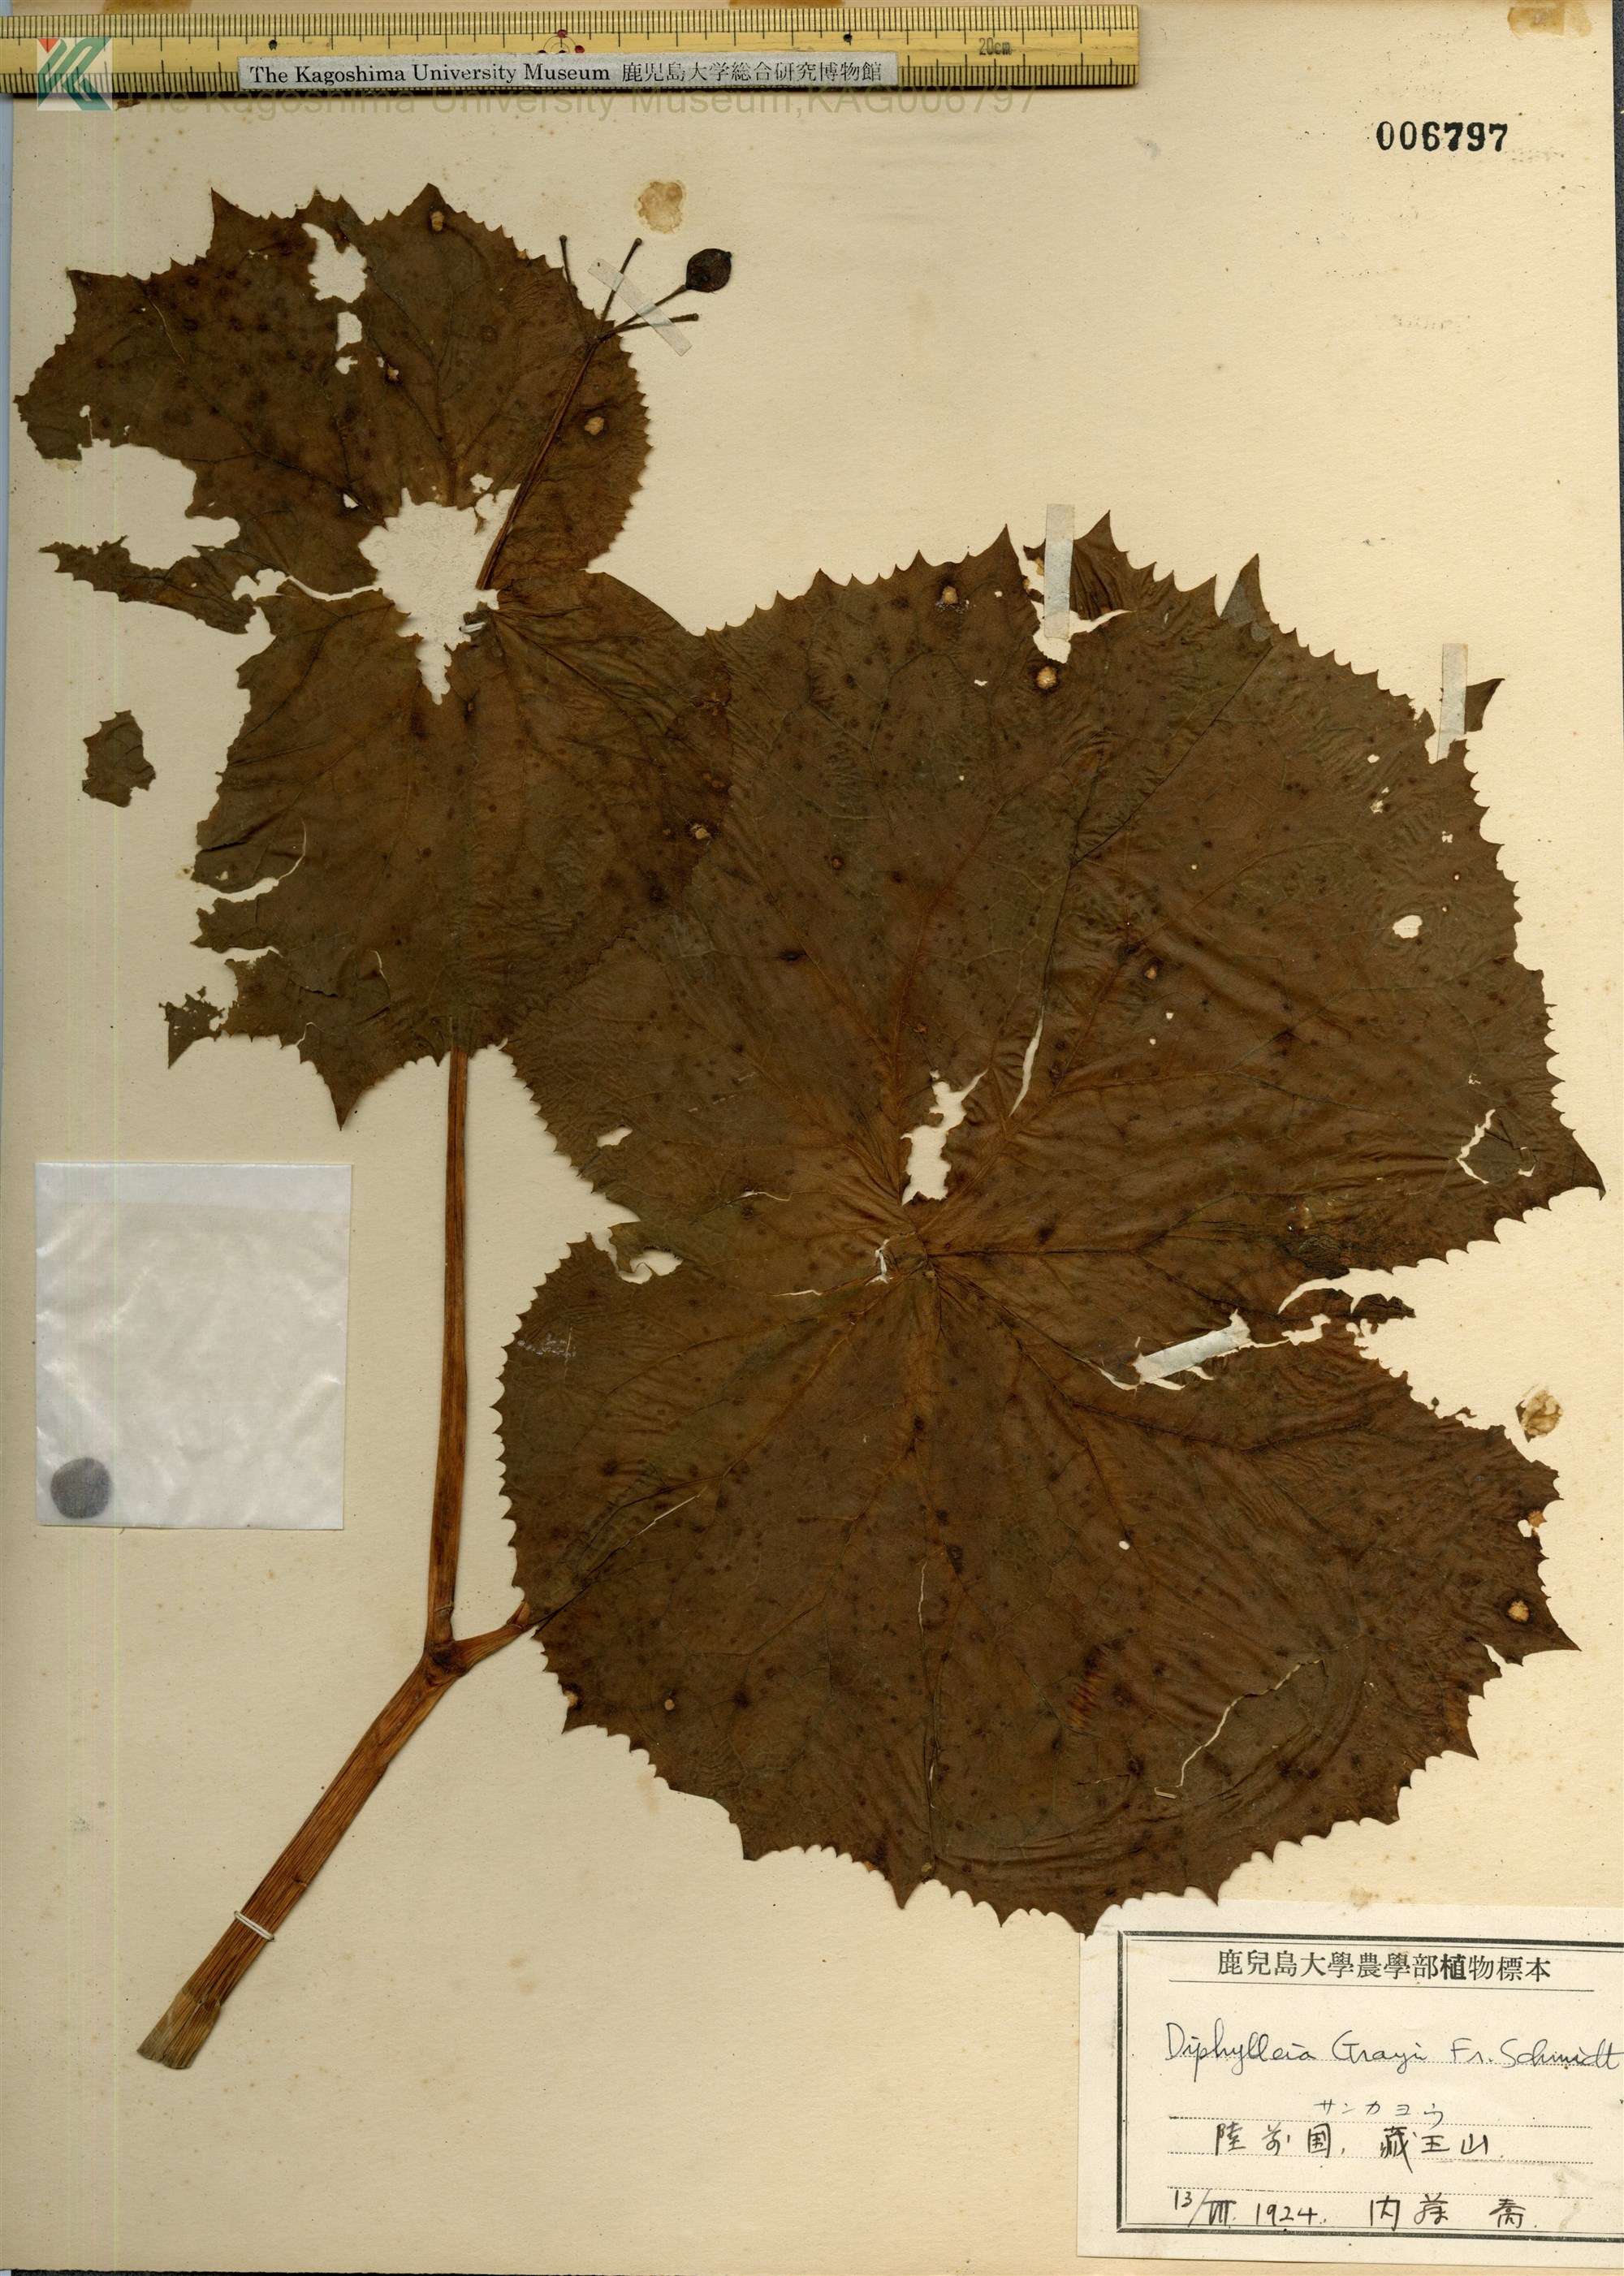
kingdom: Plantae
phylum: Tracheophyta
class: Magnoliopsida
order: Ranunculales
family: Berberidaceae
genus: Diphylleia
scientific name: Diphylleia grayi
